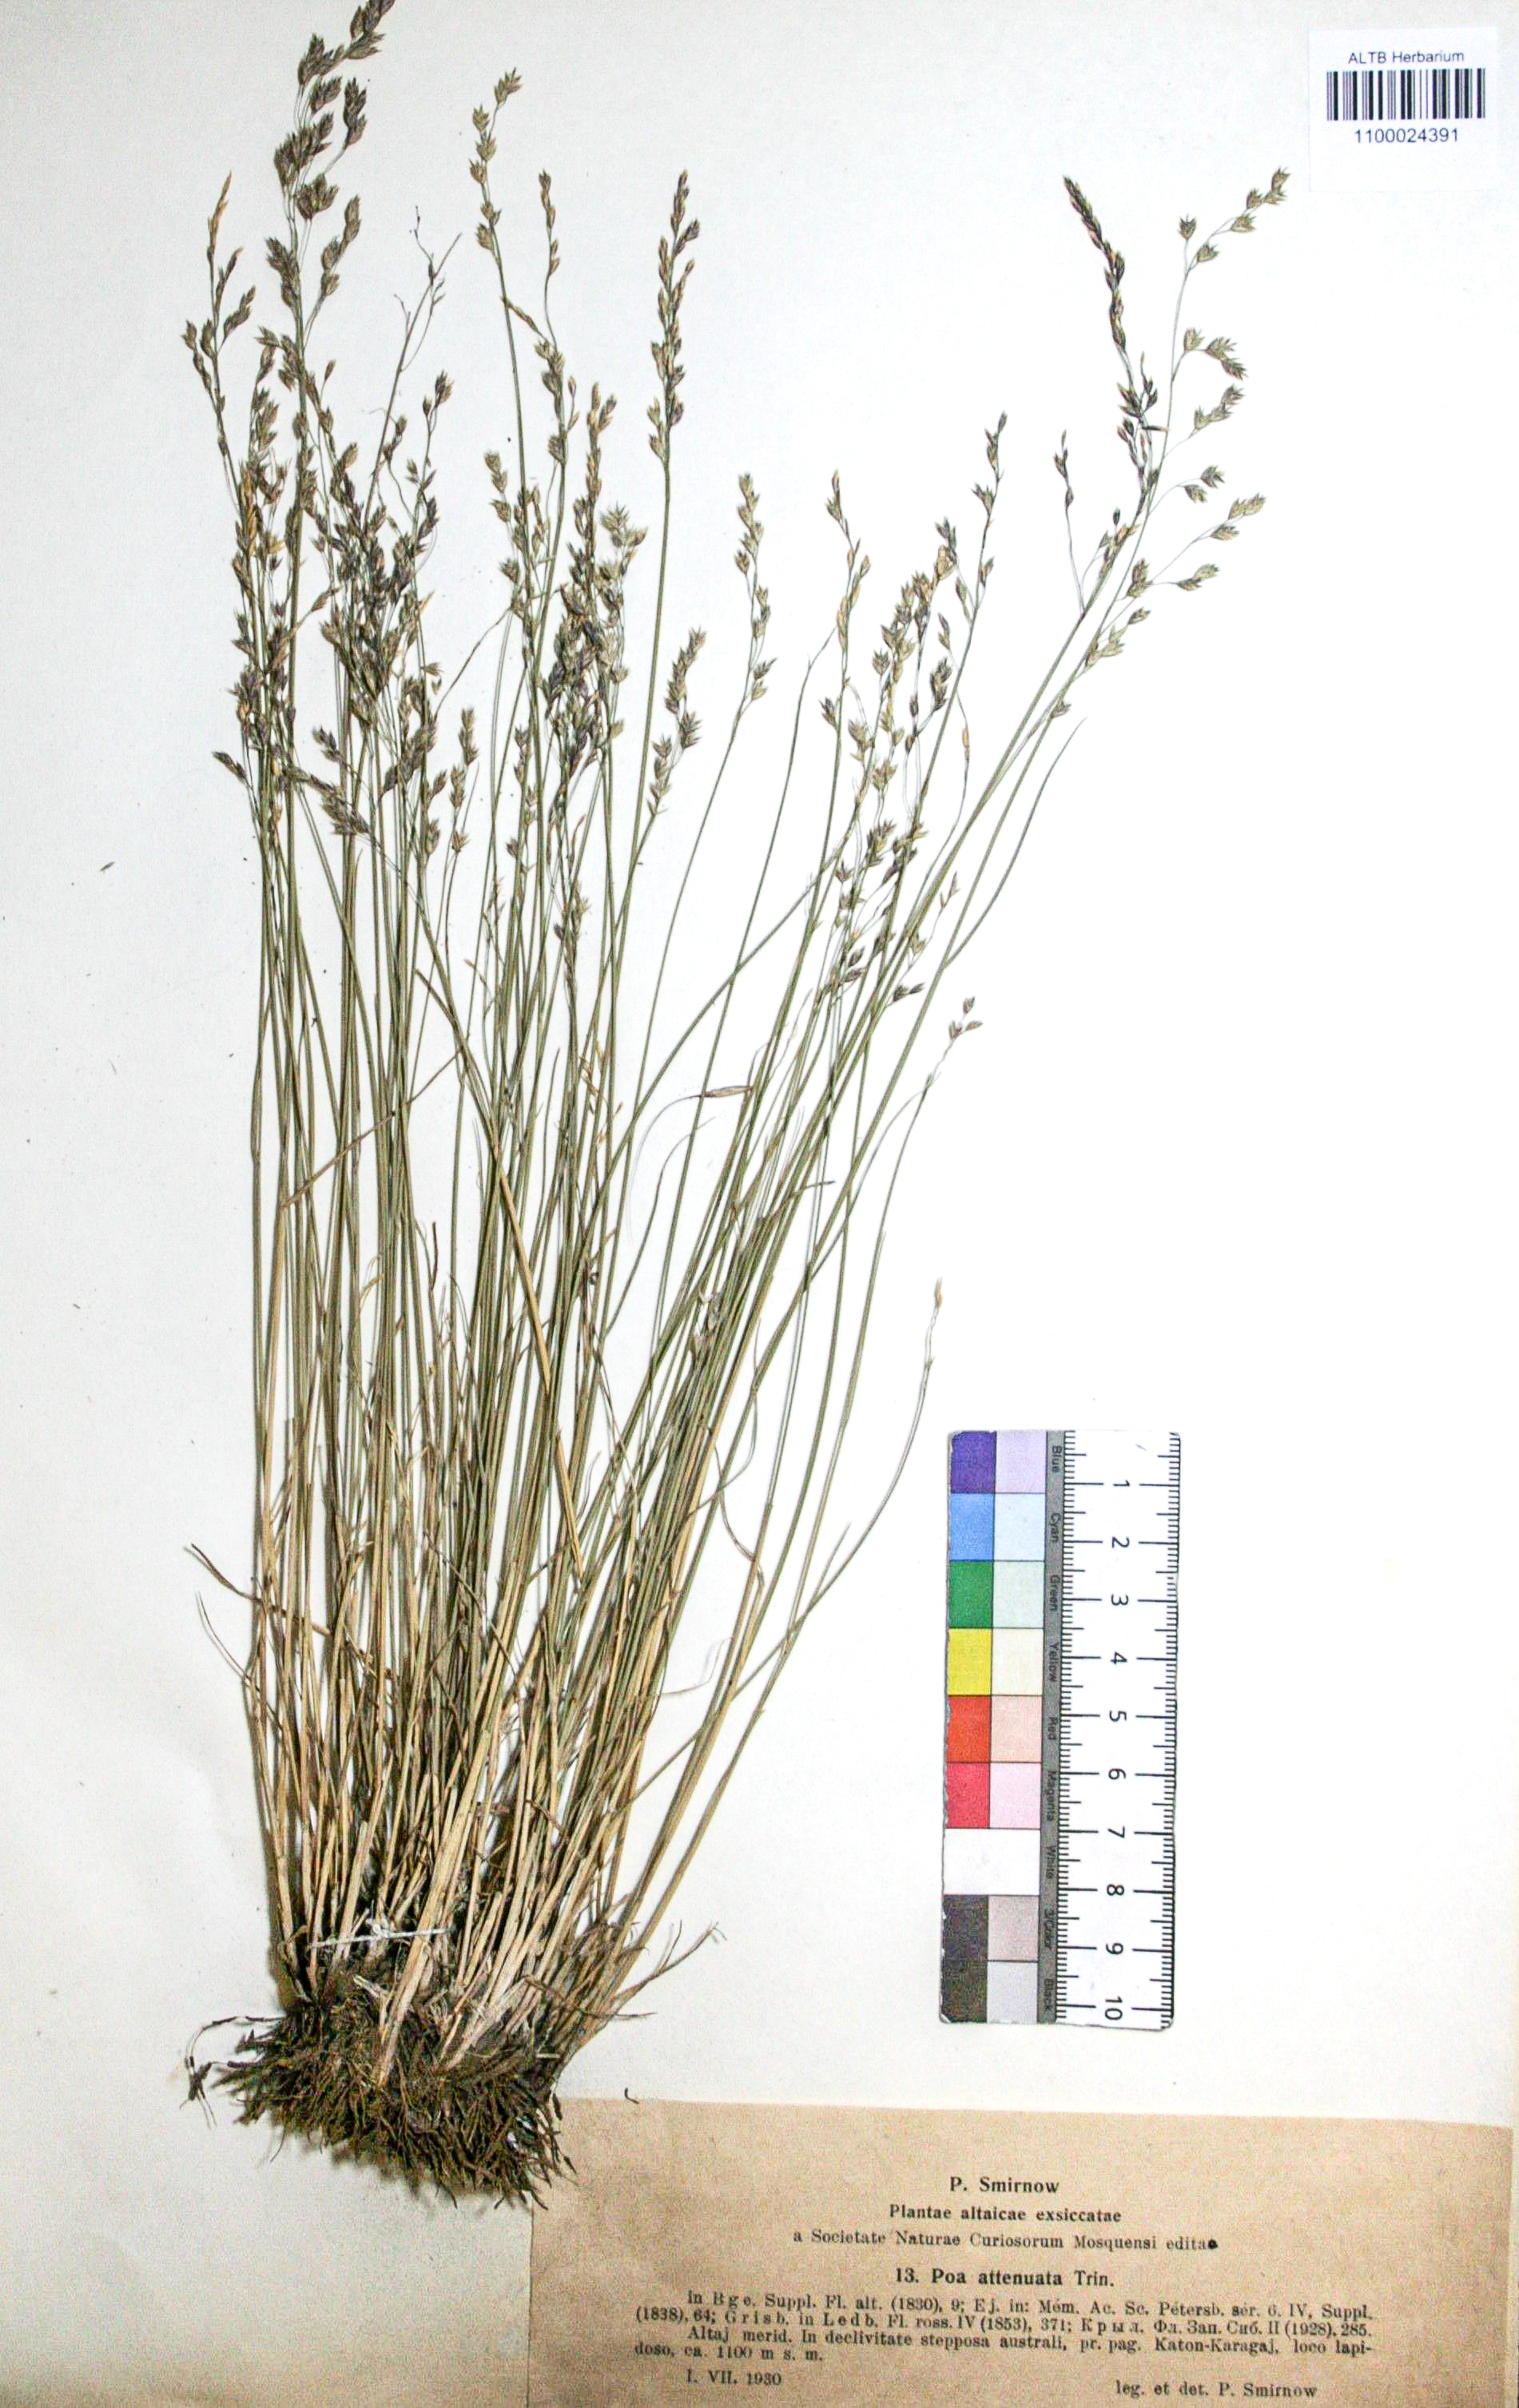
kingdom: Plantae
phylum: Tracheophyta
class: Liliopsida
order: Poales
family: Poaceae
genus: Poa
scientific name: Poa attenuata
